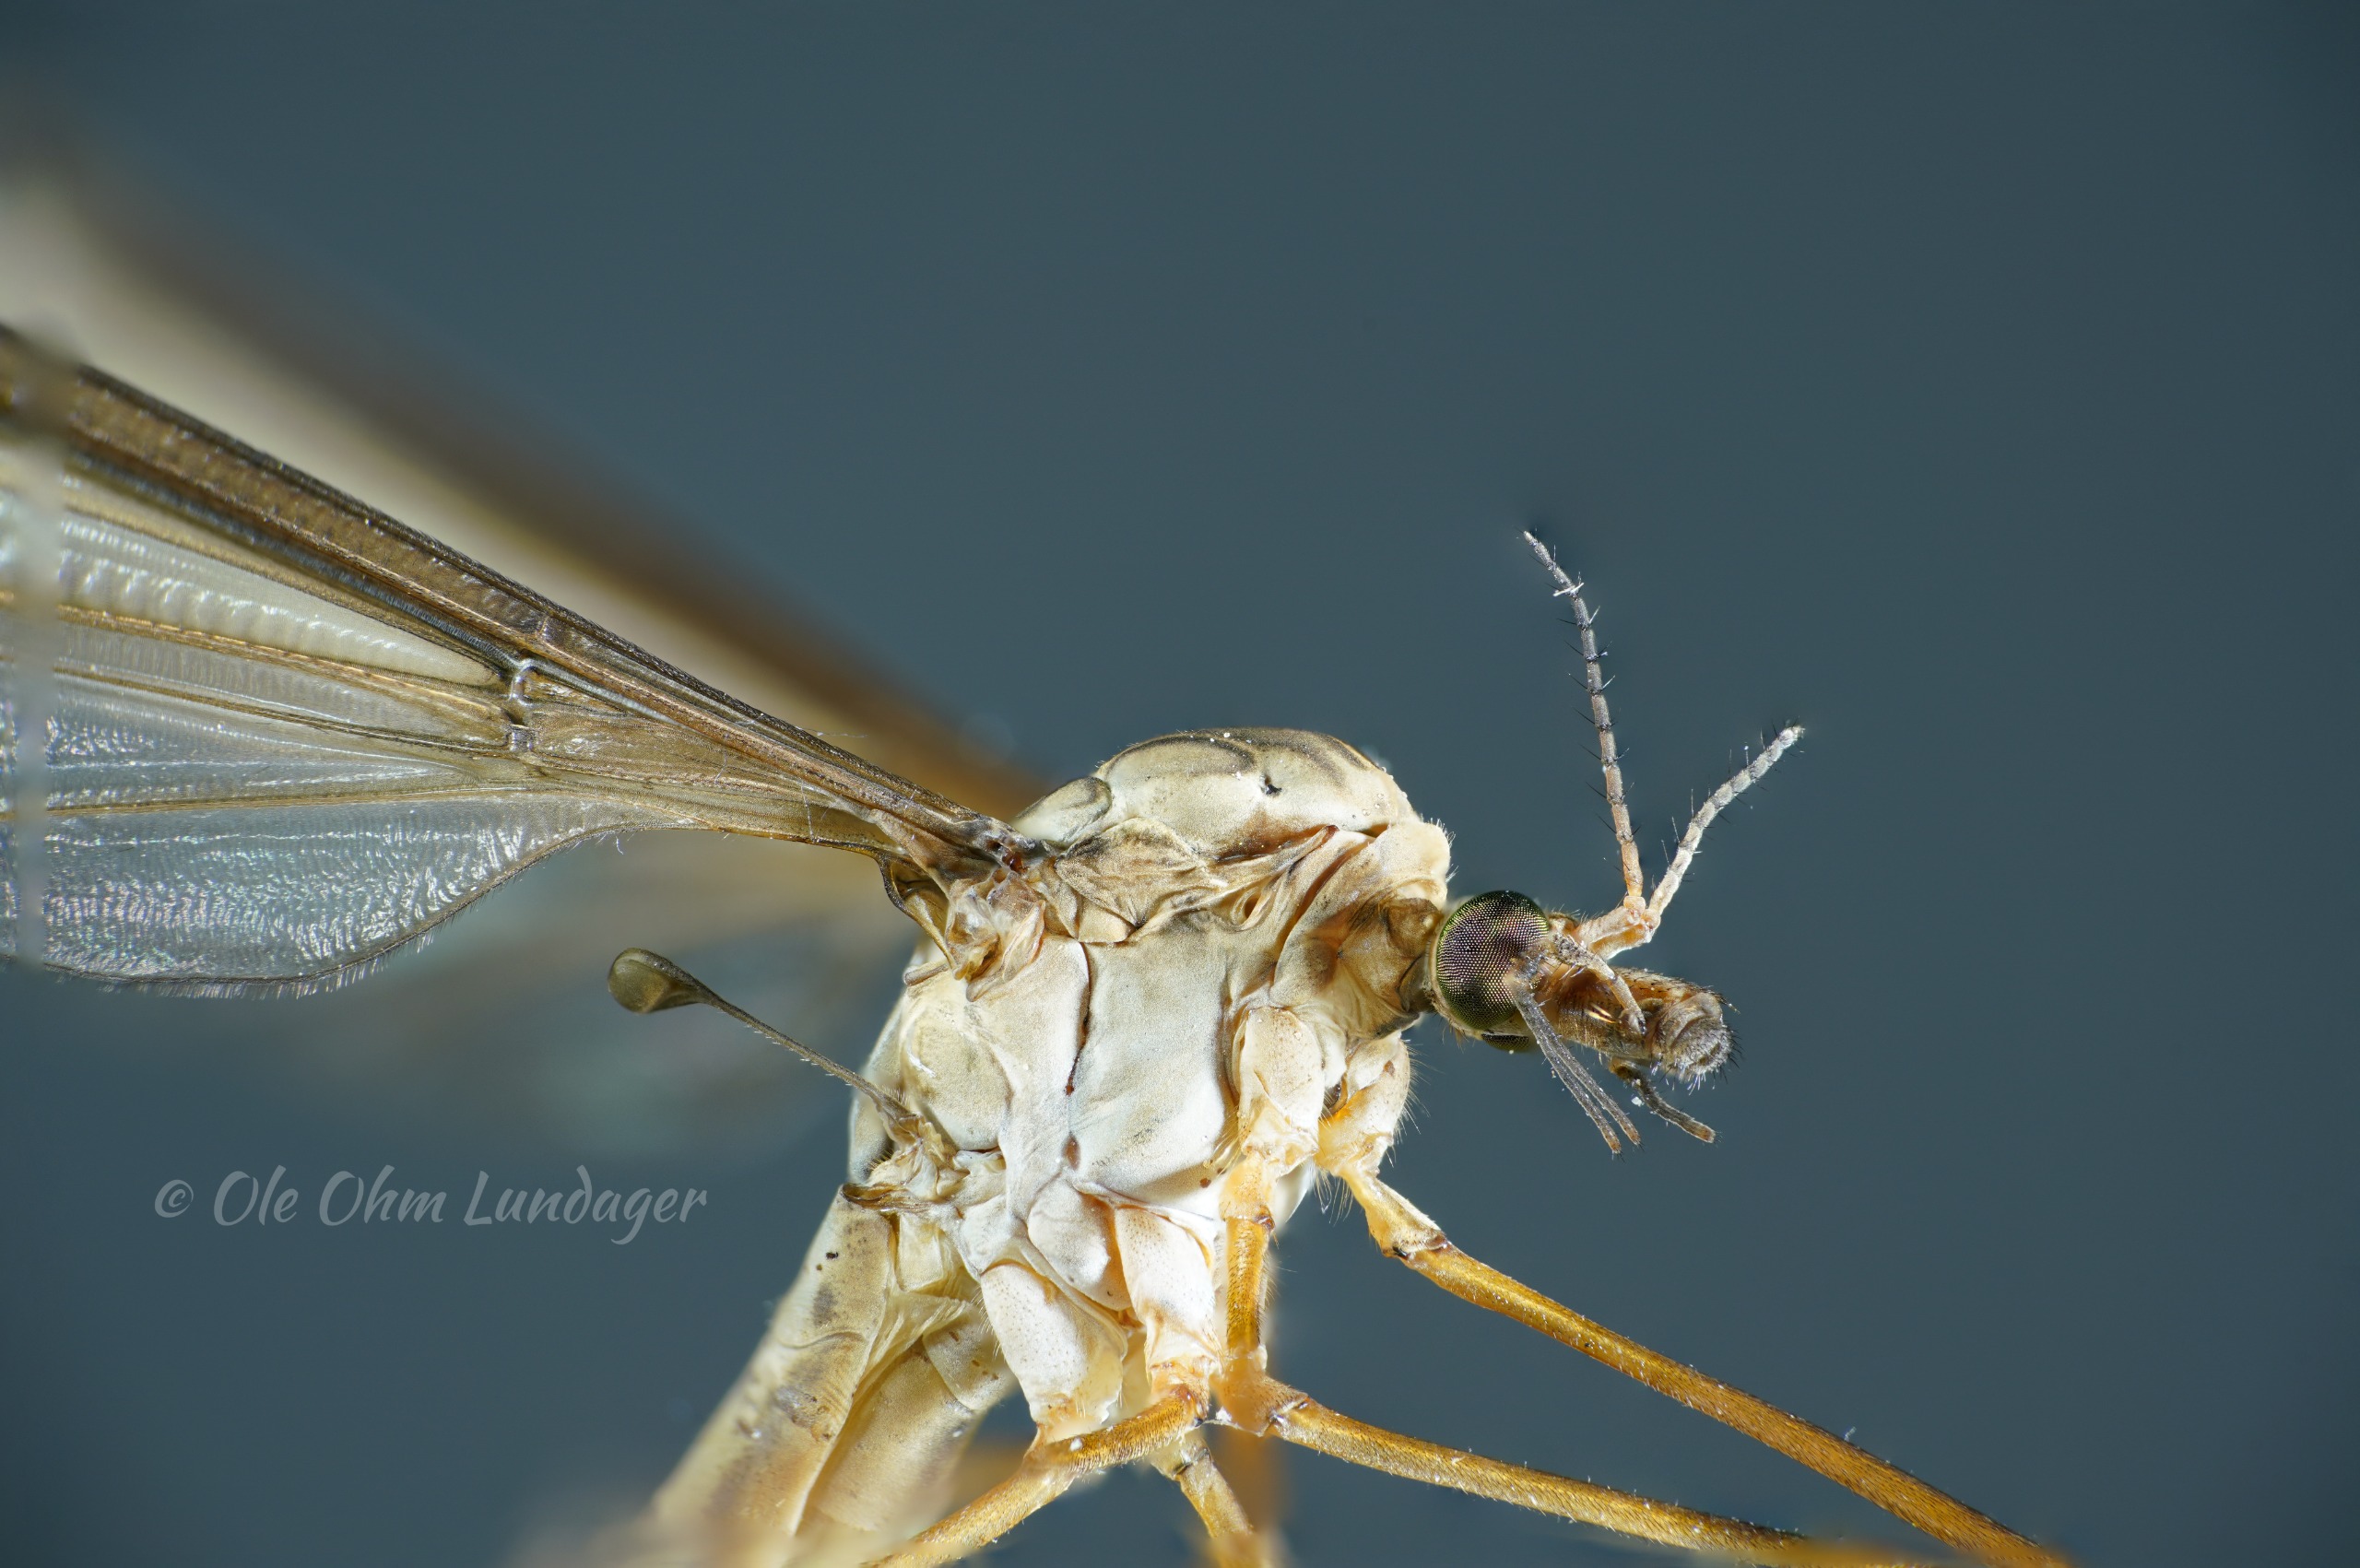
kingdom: Animalia
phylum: Arthropoda
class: Insecta
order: Diptera
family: Tipulidae
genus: Tipula
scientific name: Tipula oleracea
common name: Kålstankelben
